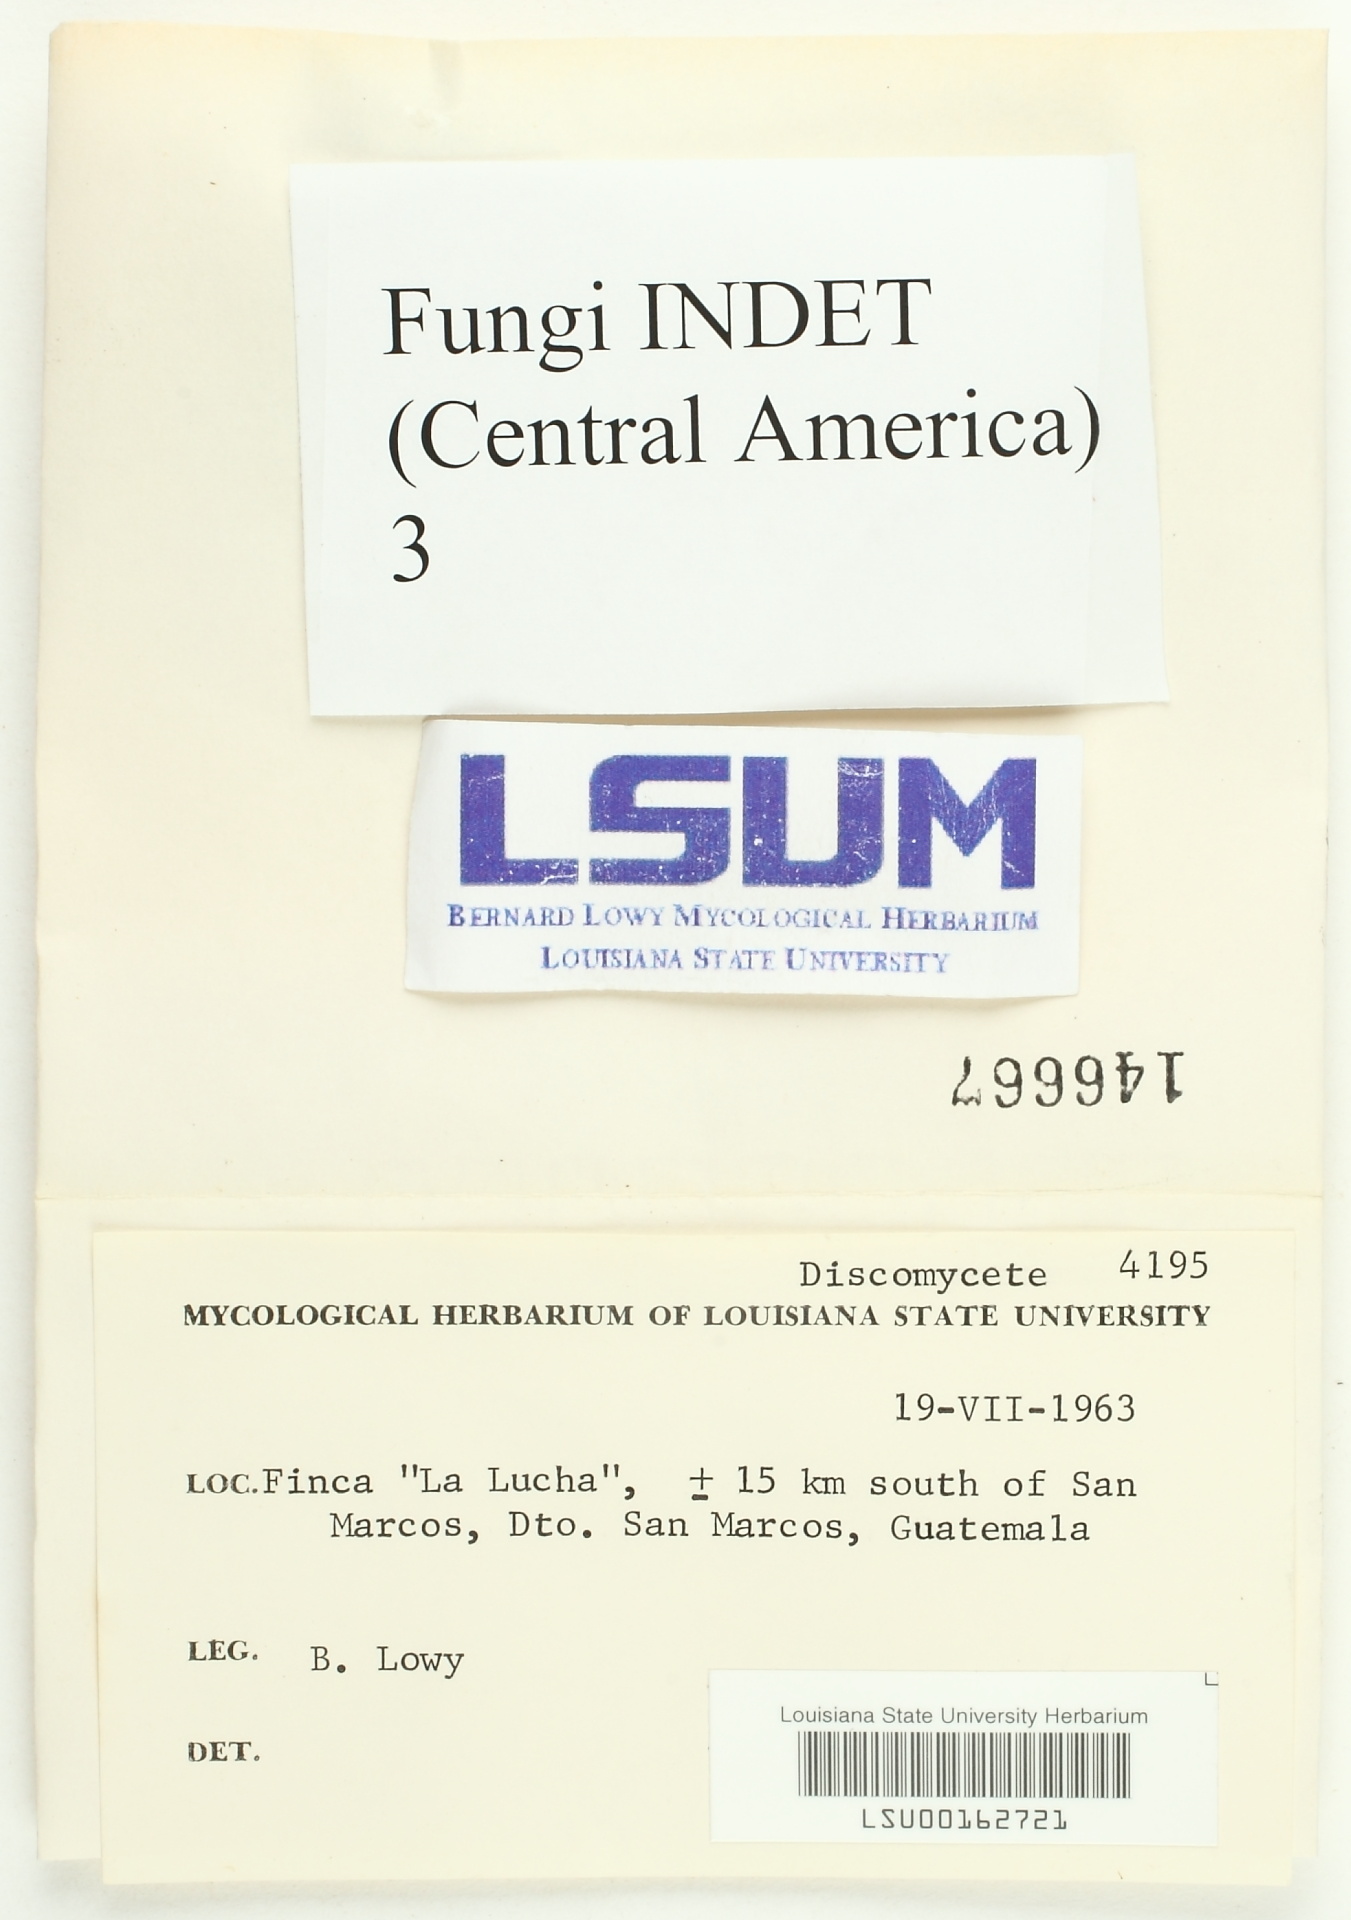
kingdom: Fungi
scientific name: Fungi
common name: Fungi
